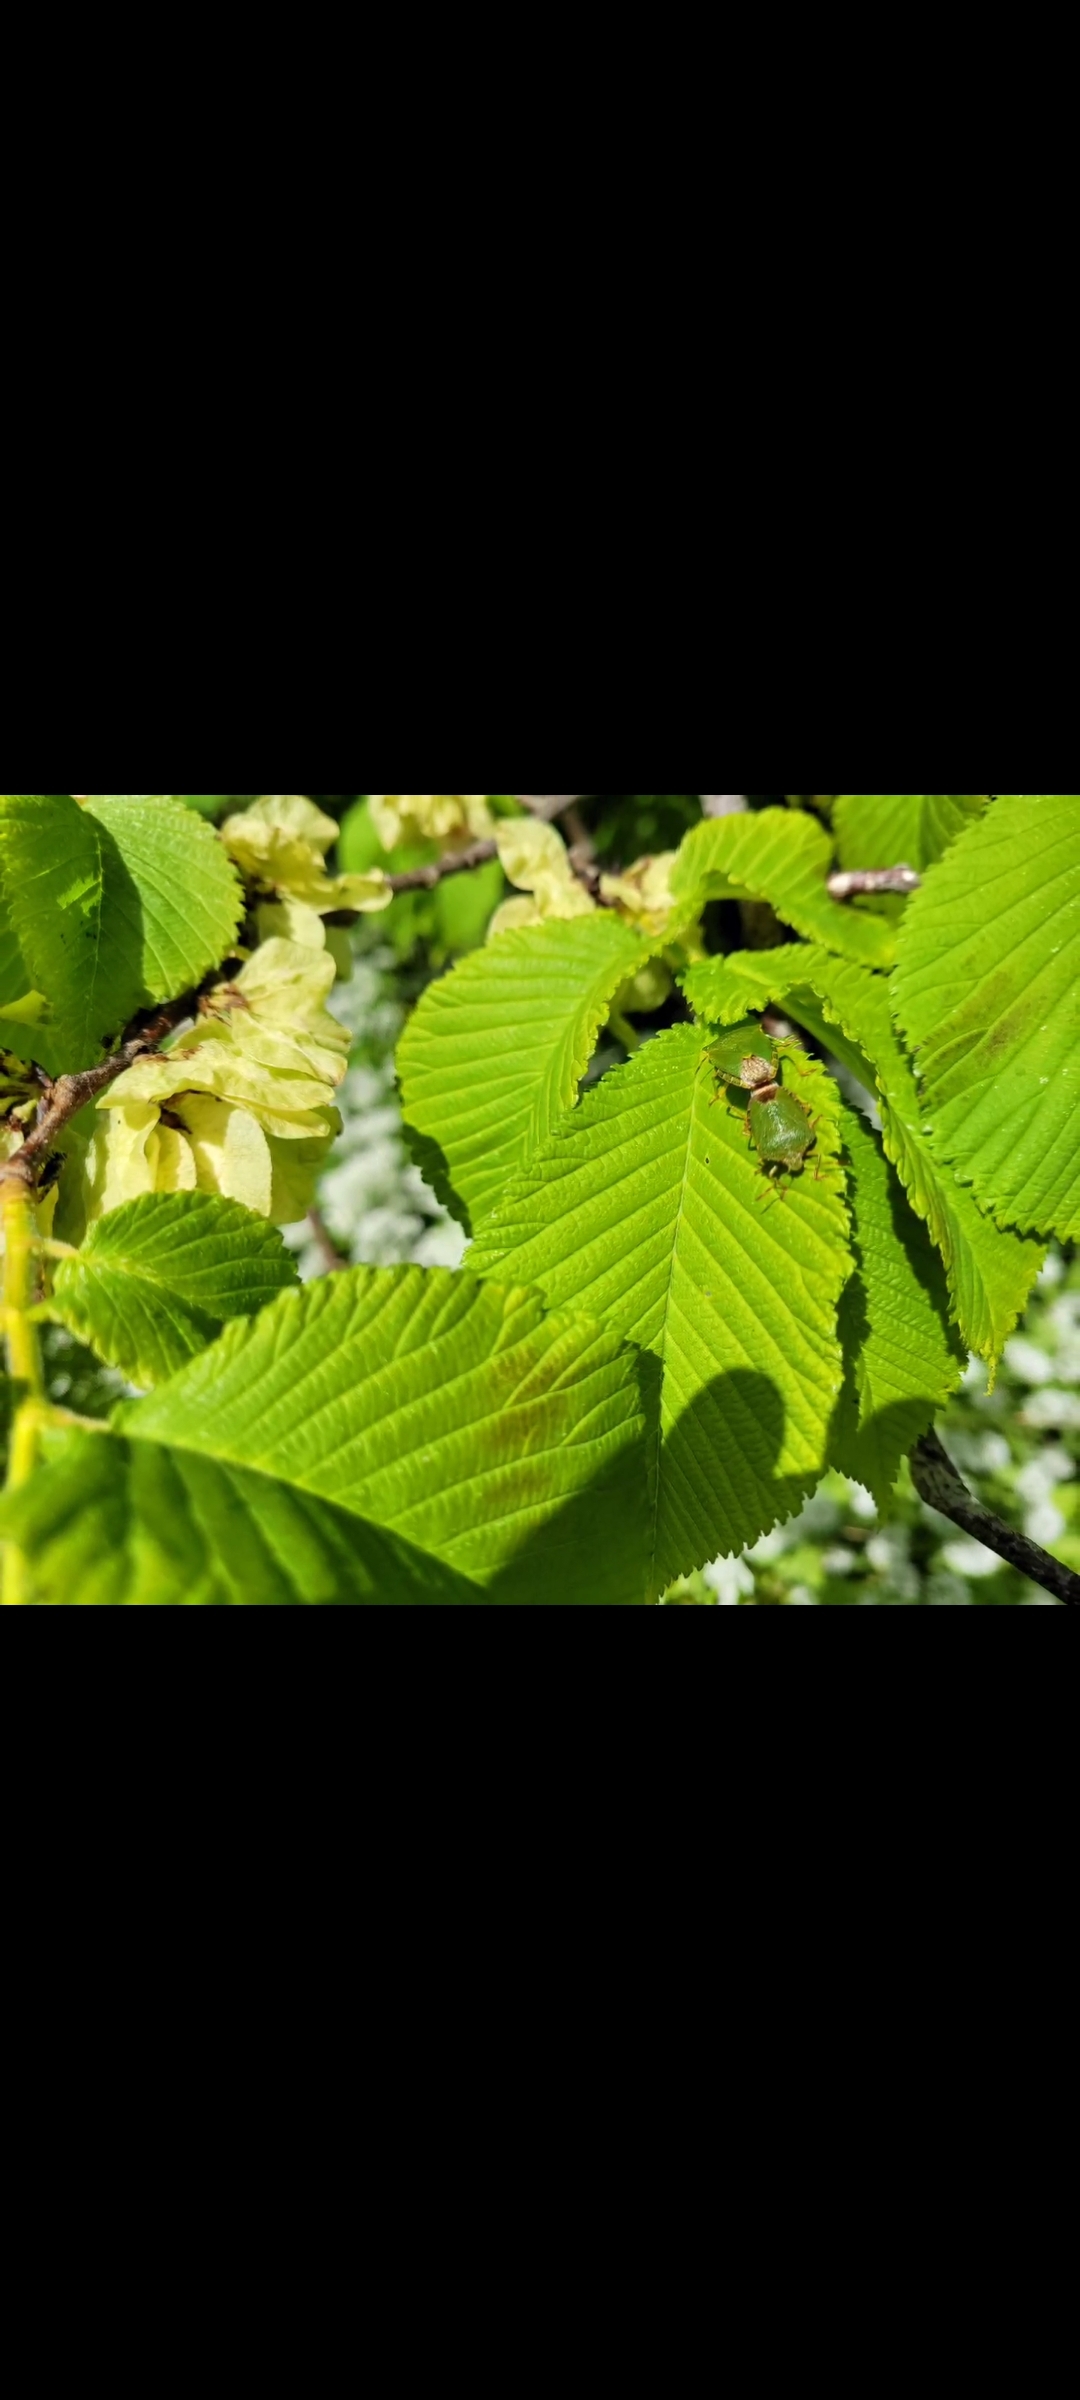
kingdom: Animalia
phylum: Arthropoda
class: Insecta
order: Hemiptera
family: Pentatomidae
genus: Palomena
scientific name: Palomena prasina
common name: Grøn bredtæge
